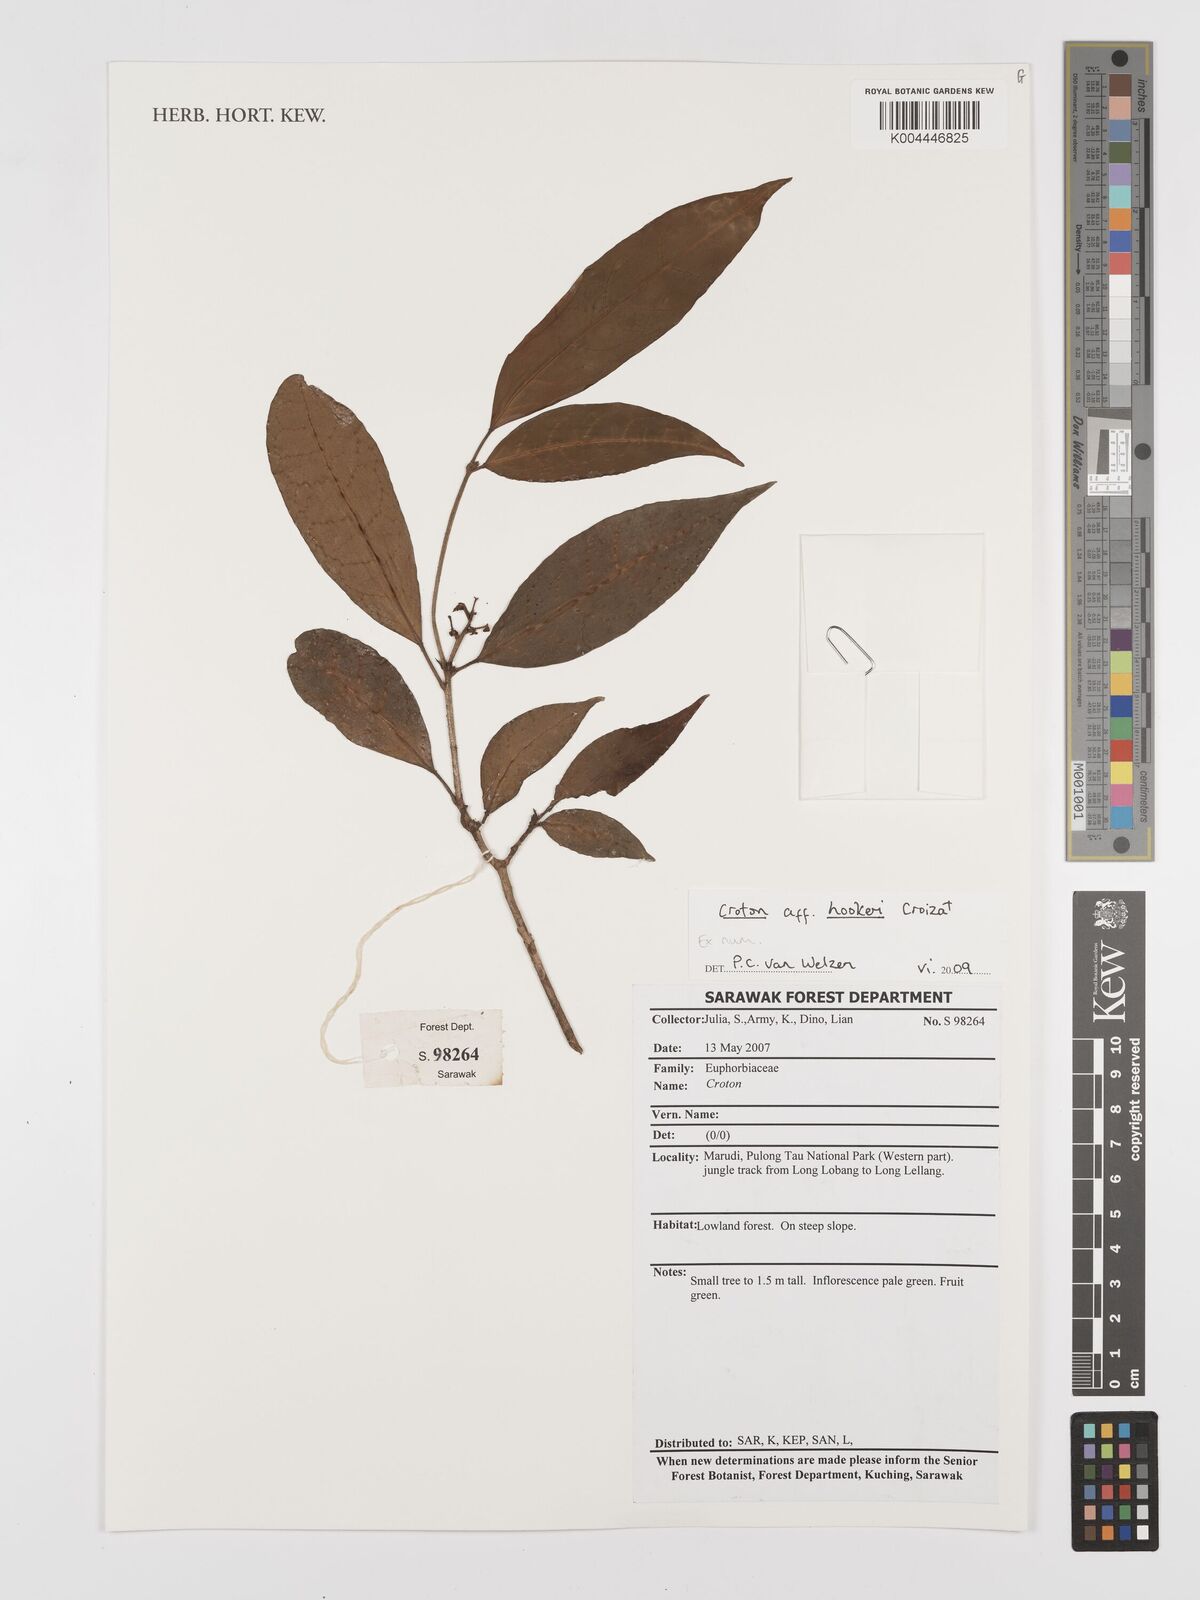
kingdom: Plantae
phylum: Tracheophyta
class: Magnoliopsida
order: Malpighiales
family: Euphorbiaceae
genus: Croton
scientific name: Croton
